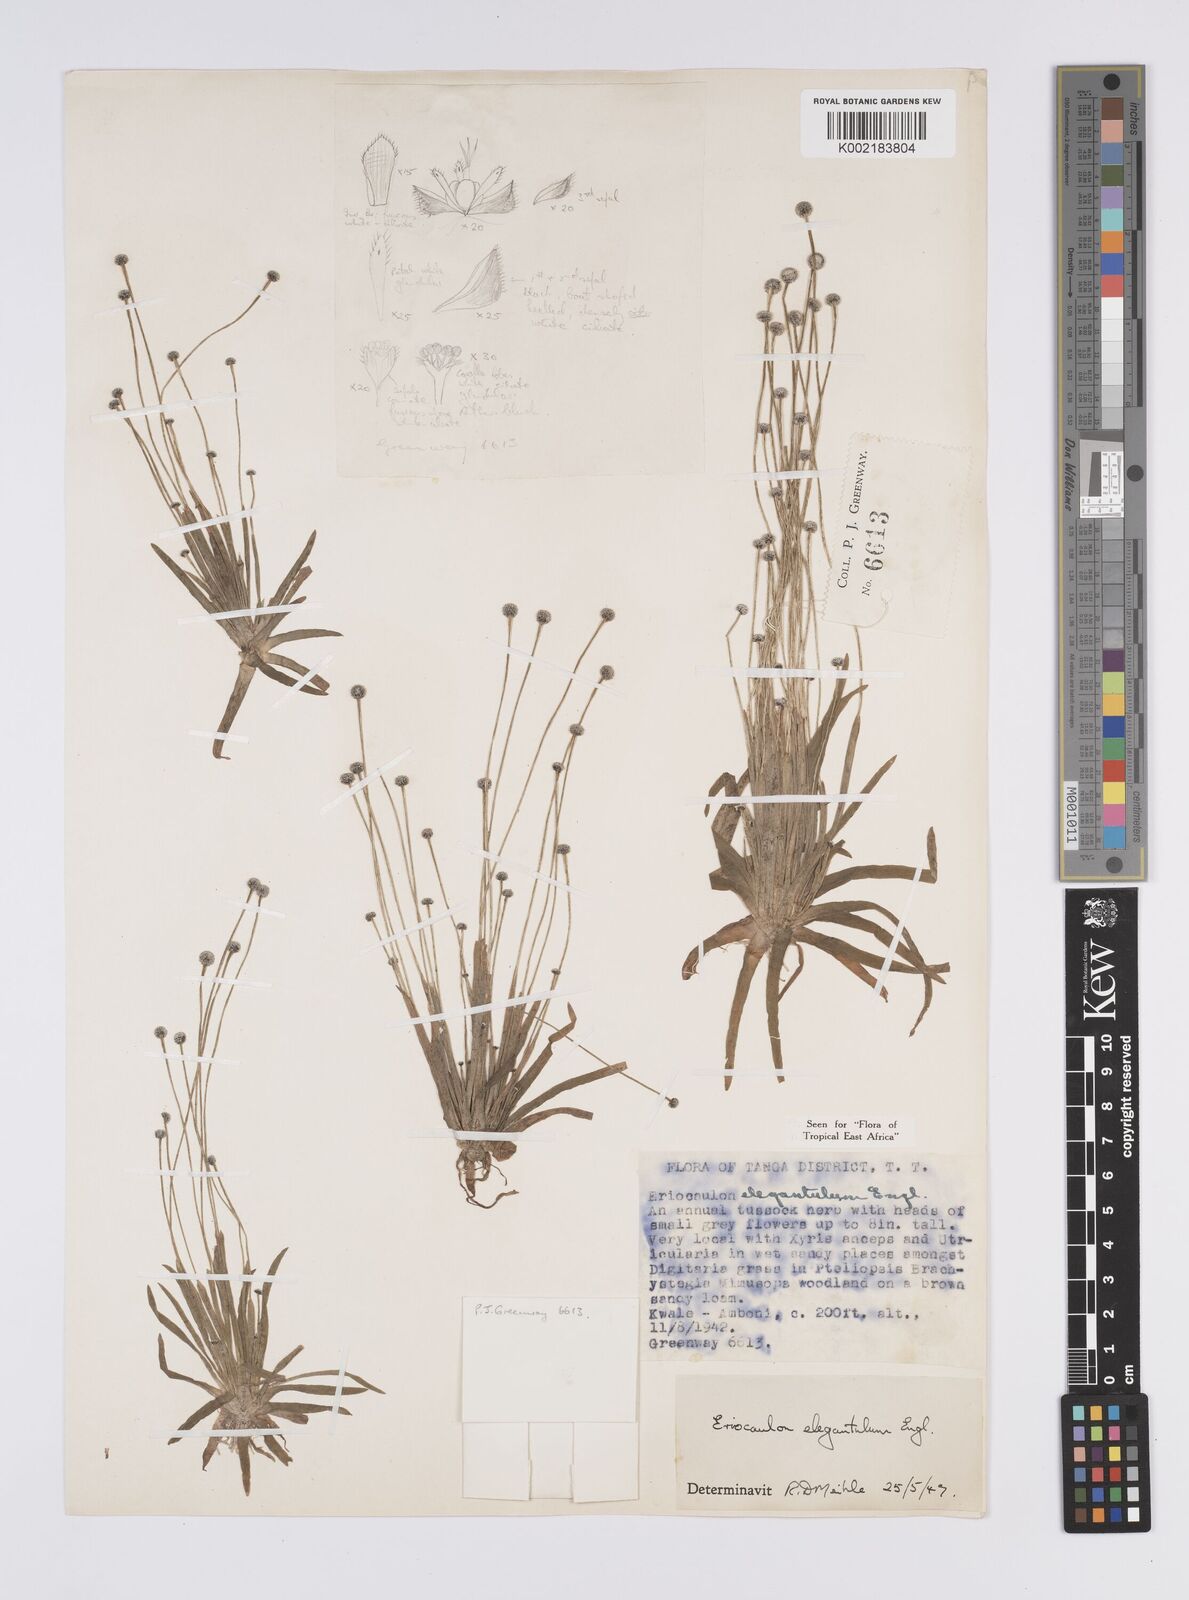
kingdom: Plantae
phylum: Tracheophyta
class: Liliopsida
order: Poales
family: Eriocaulaceae
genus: Eriocaulon
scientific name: Eriocaulon elegantulum
